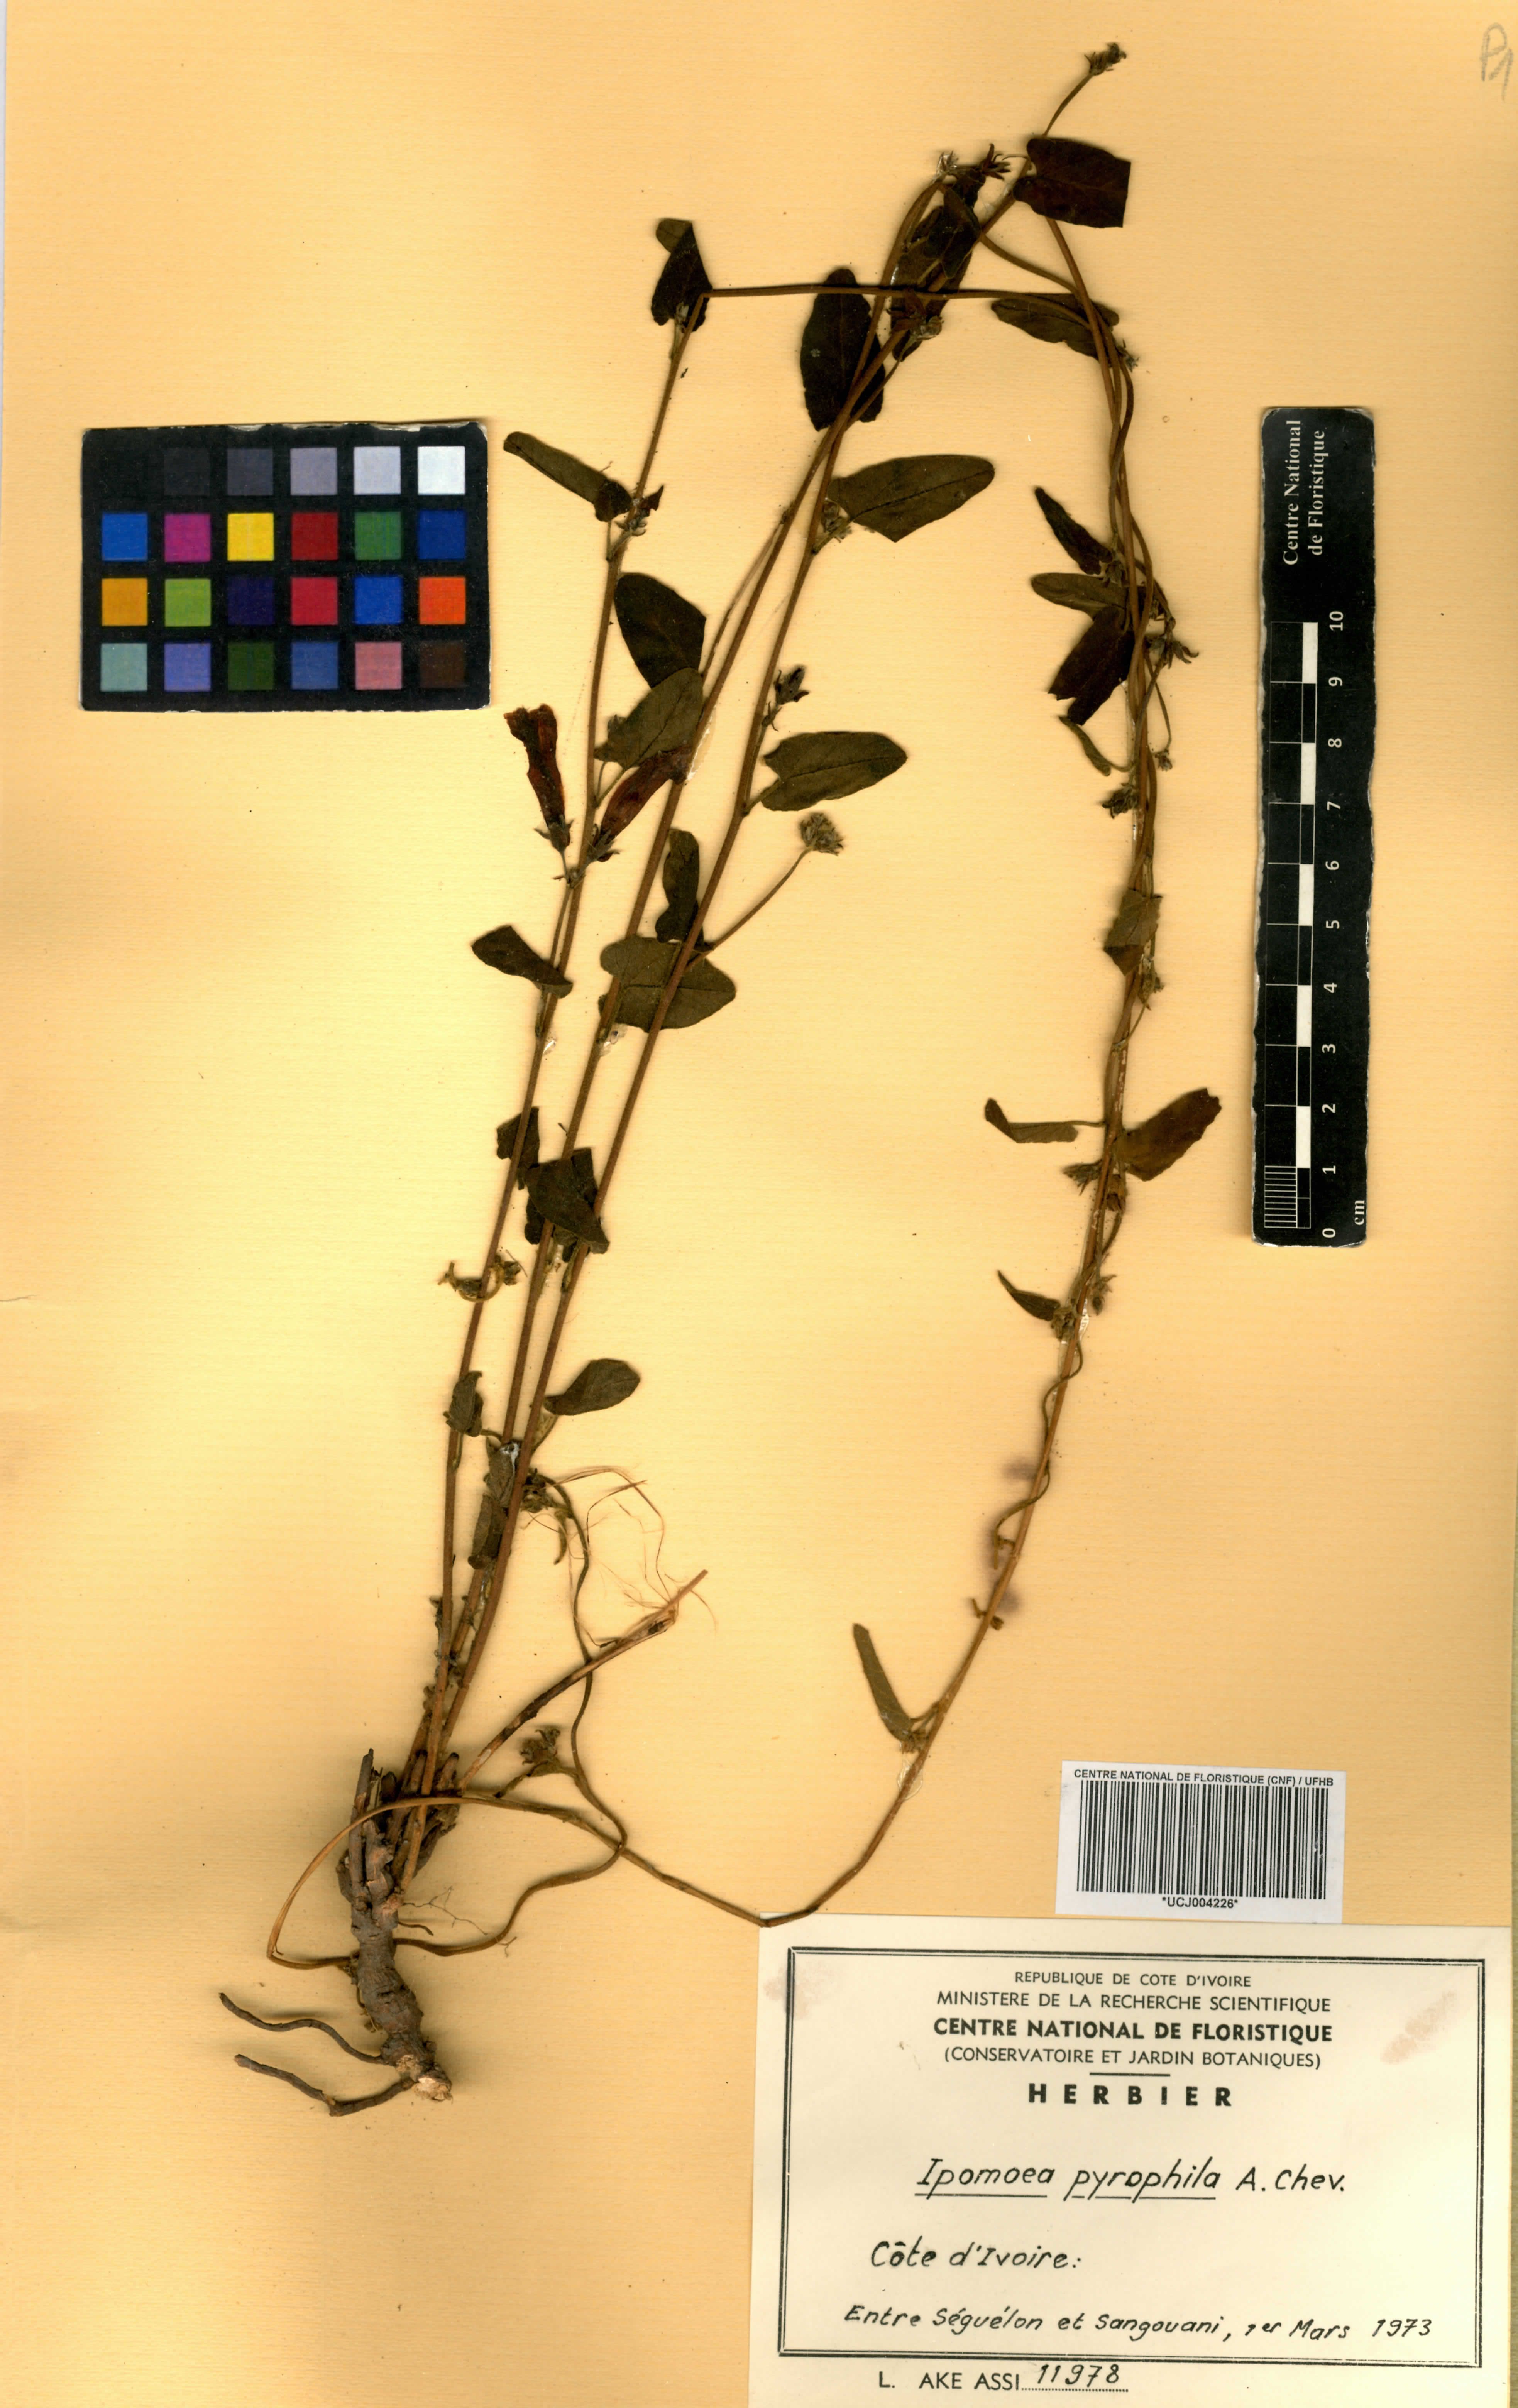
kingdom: Plantae
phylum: Tracheophyta
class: Magnoliopsida
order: Solanales
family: Convolvulaceae
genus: Ipomoea
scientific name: Ipomoea pyrophila
